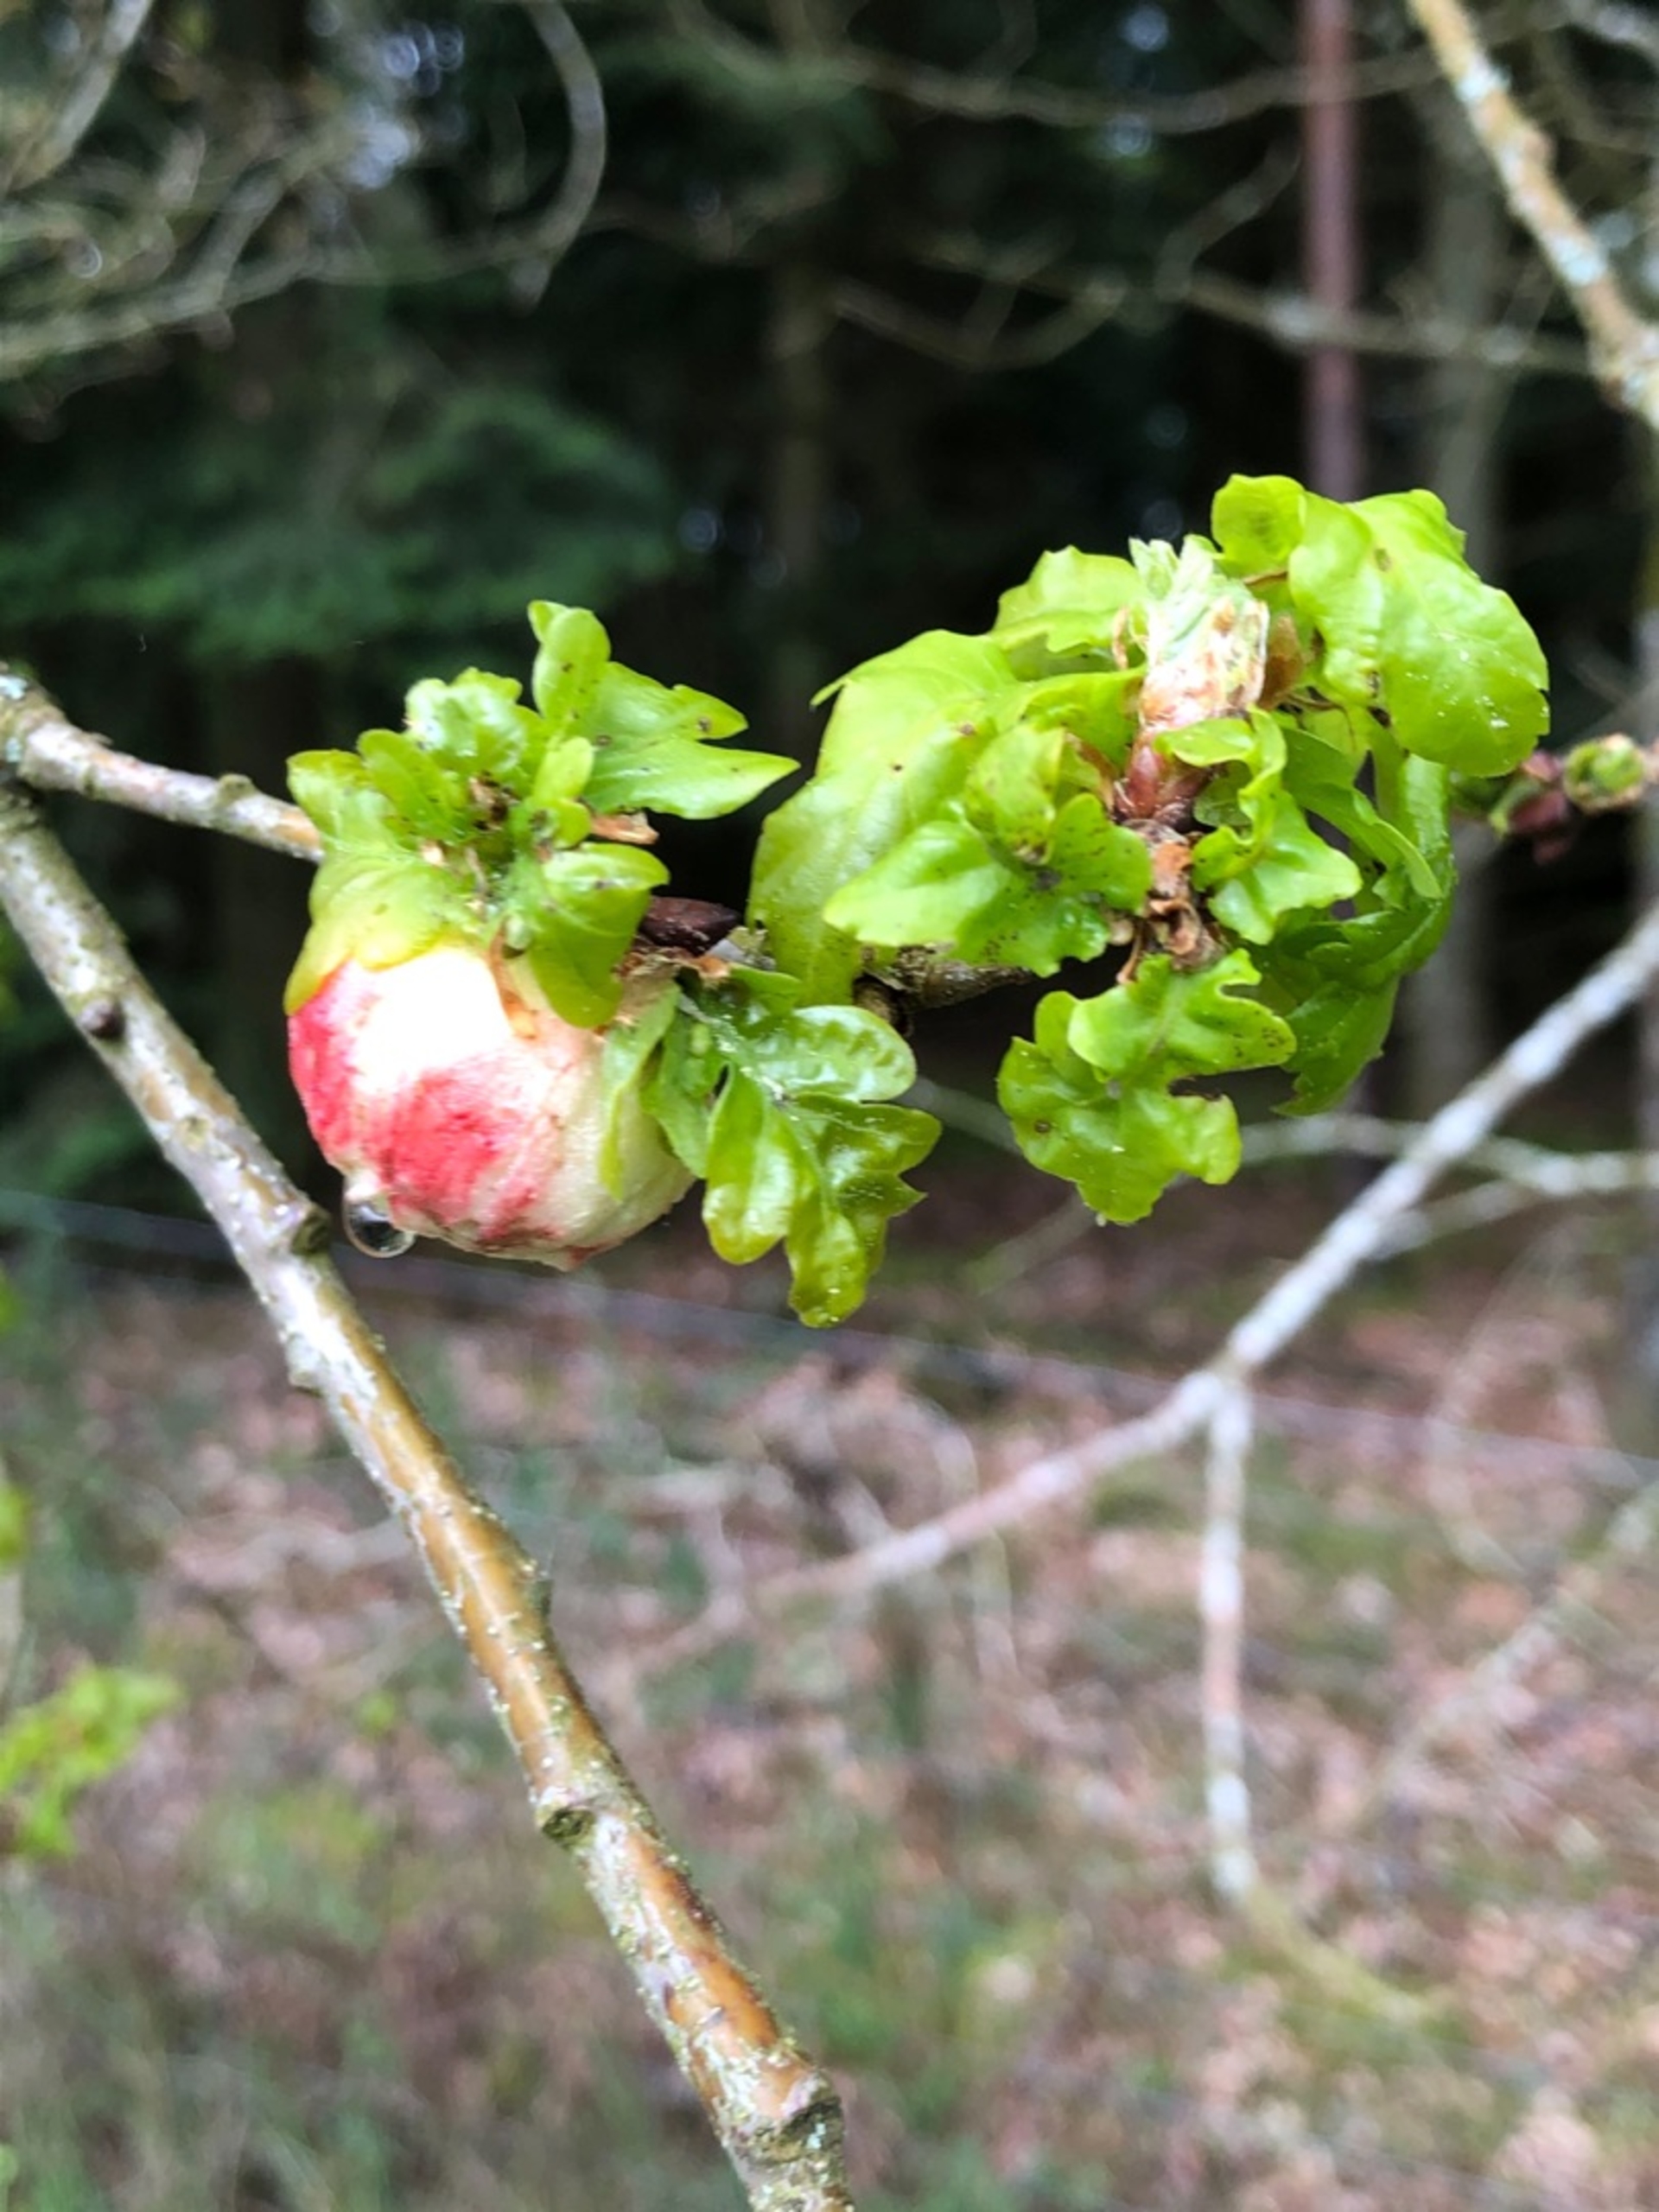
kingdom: Animalia
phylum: Arthropoda
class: Insecta
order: Hymenoptera
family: Cynipidae
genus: Biorhiza
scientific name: Biorhiza pallida
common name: Ege-kartoffelgalhveps
